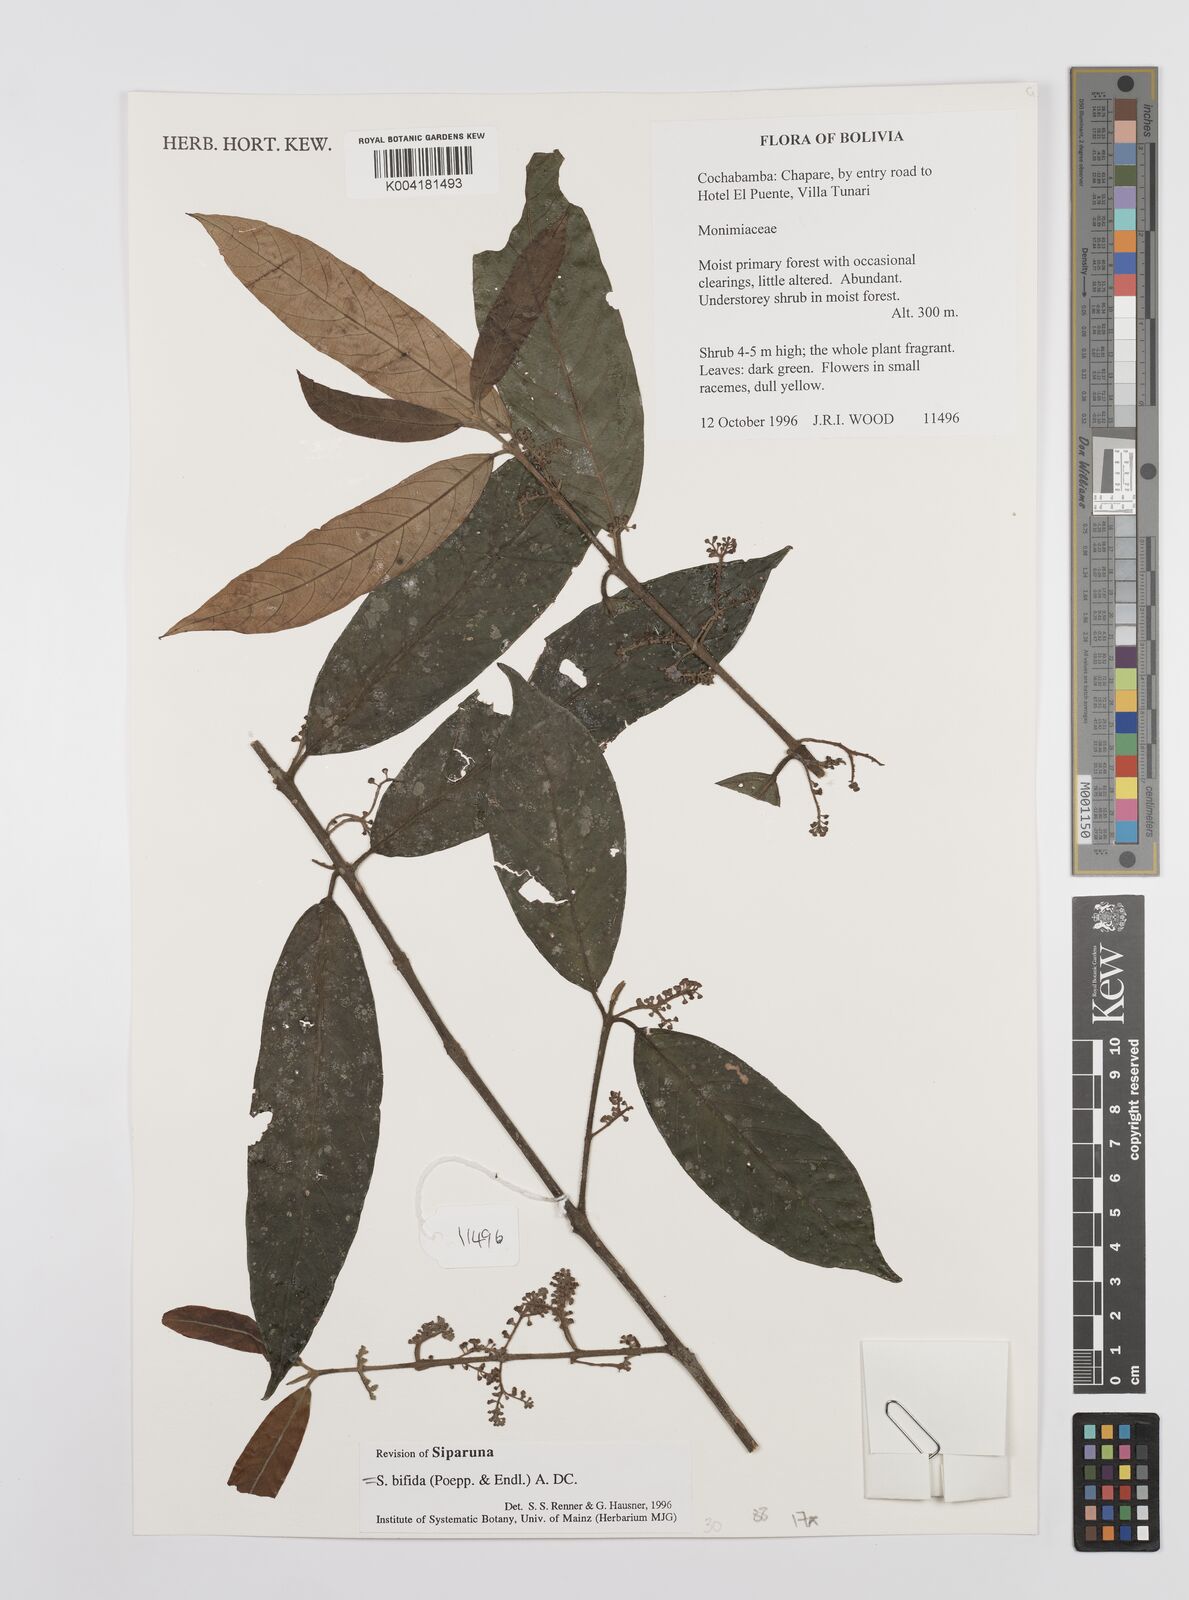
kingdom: Plantae
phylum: Tracheophyta
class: Magnoliopsida
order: Laurales
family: Siparunaceae
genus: Siparuna
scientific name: Siparuna bifida
